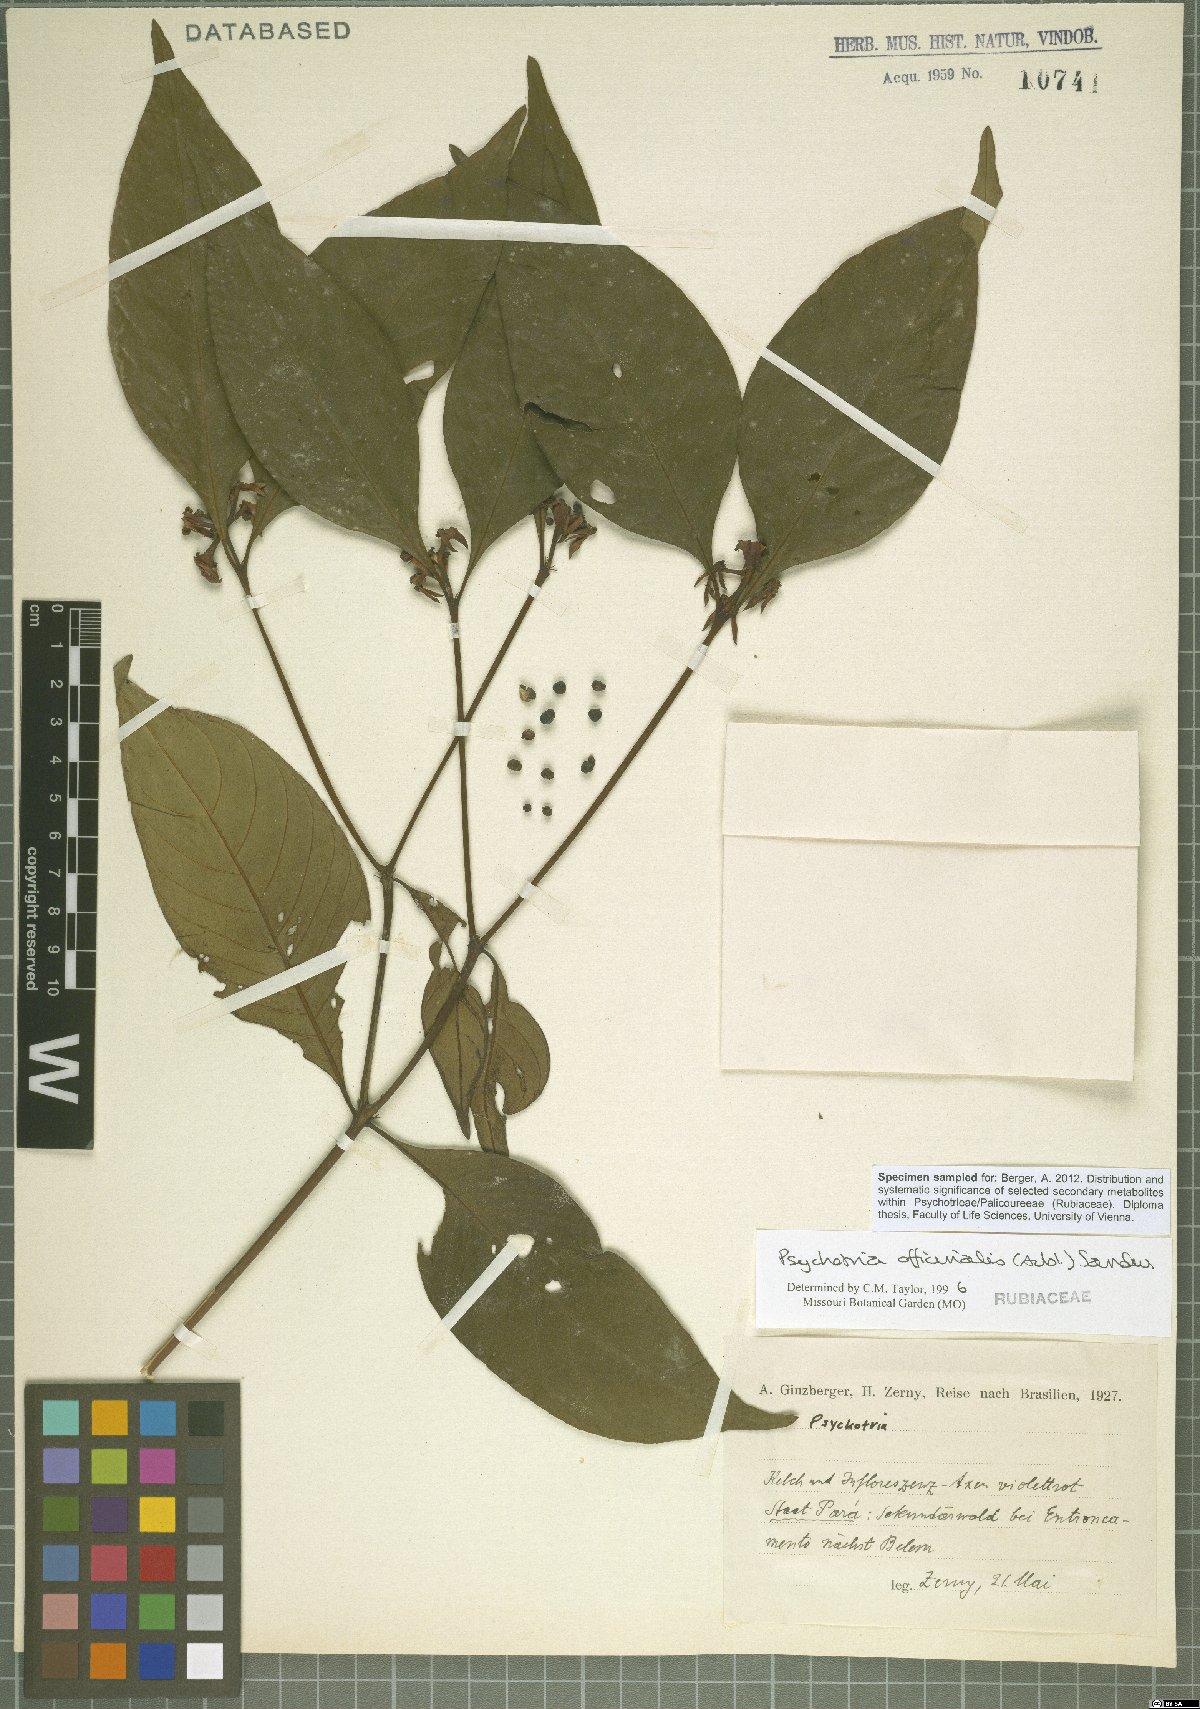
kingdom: Plantae
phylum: Tracheophyta
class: Magnoliopsida
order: Gentianales
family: Rubiaceae
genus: Palicourea
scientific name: Palicourea tenerior
